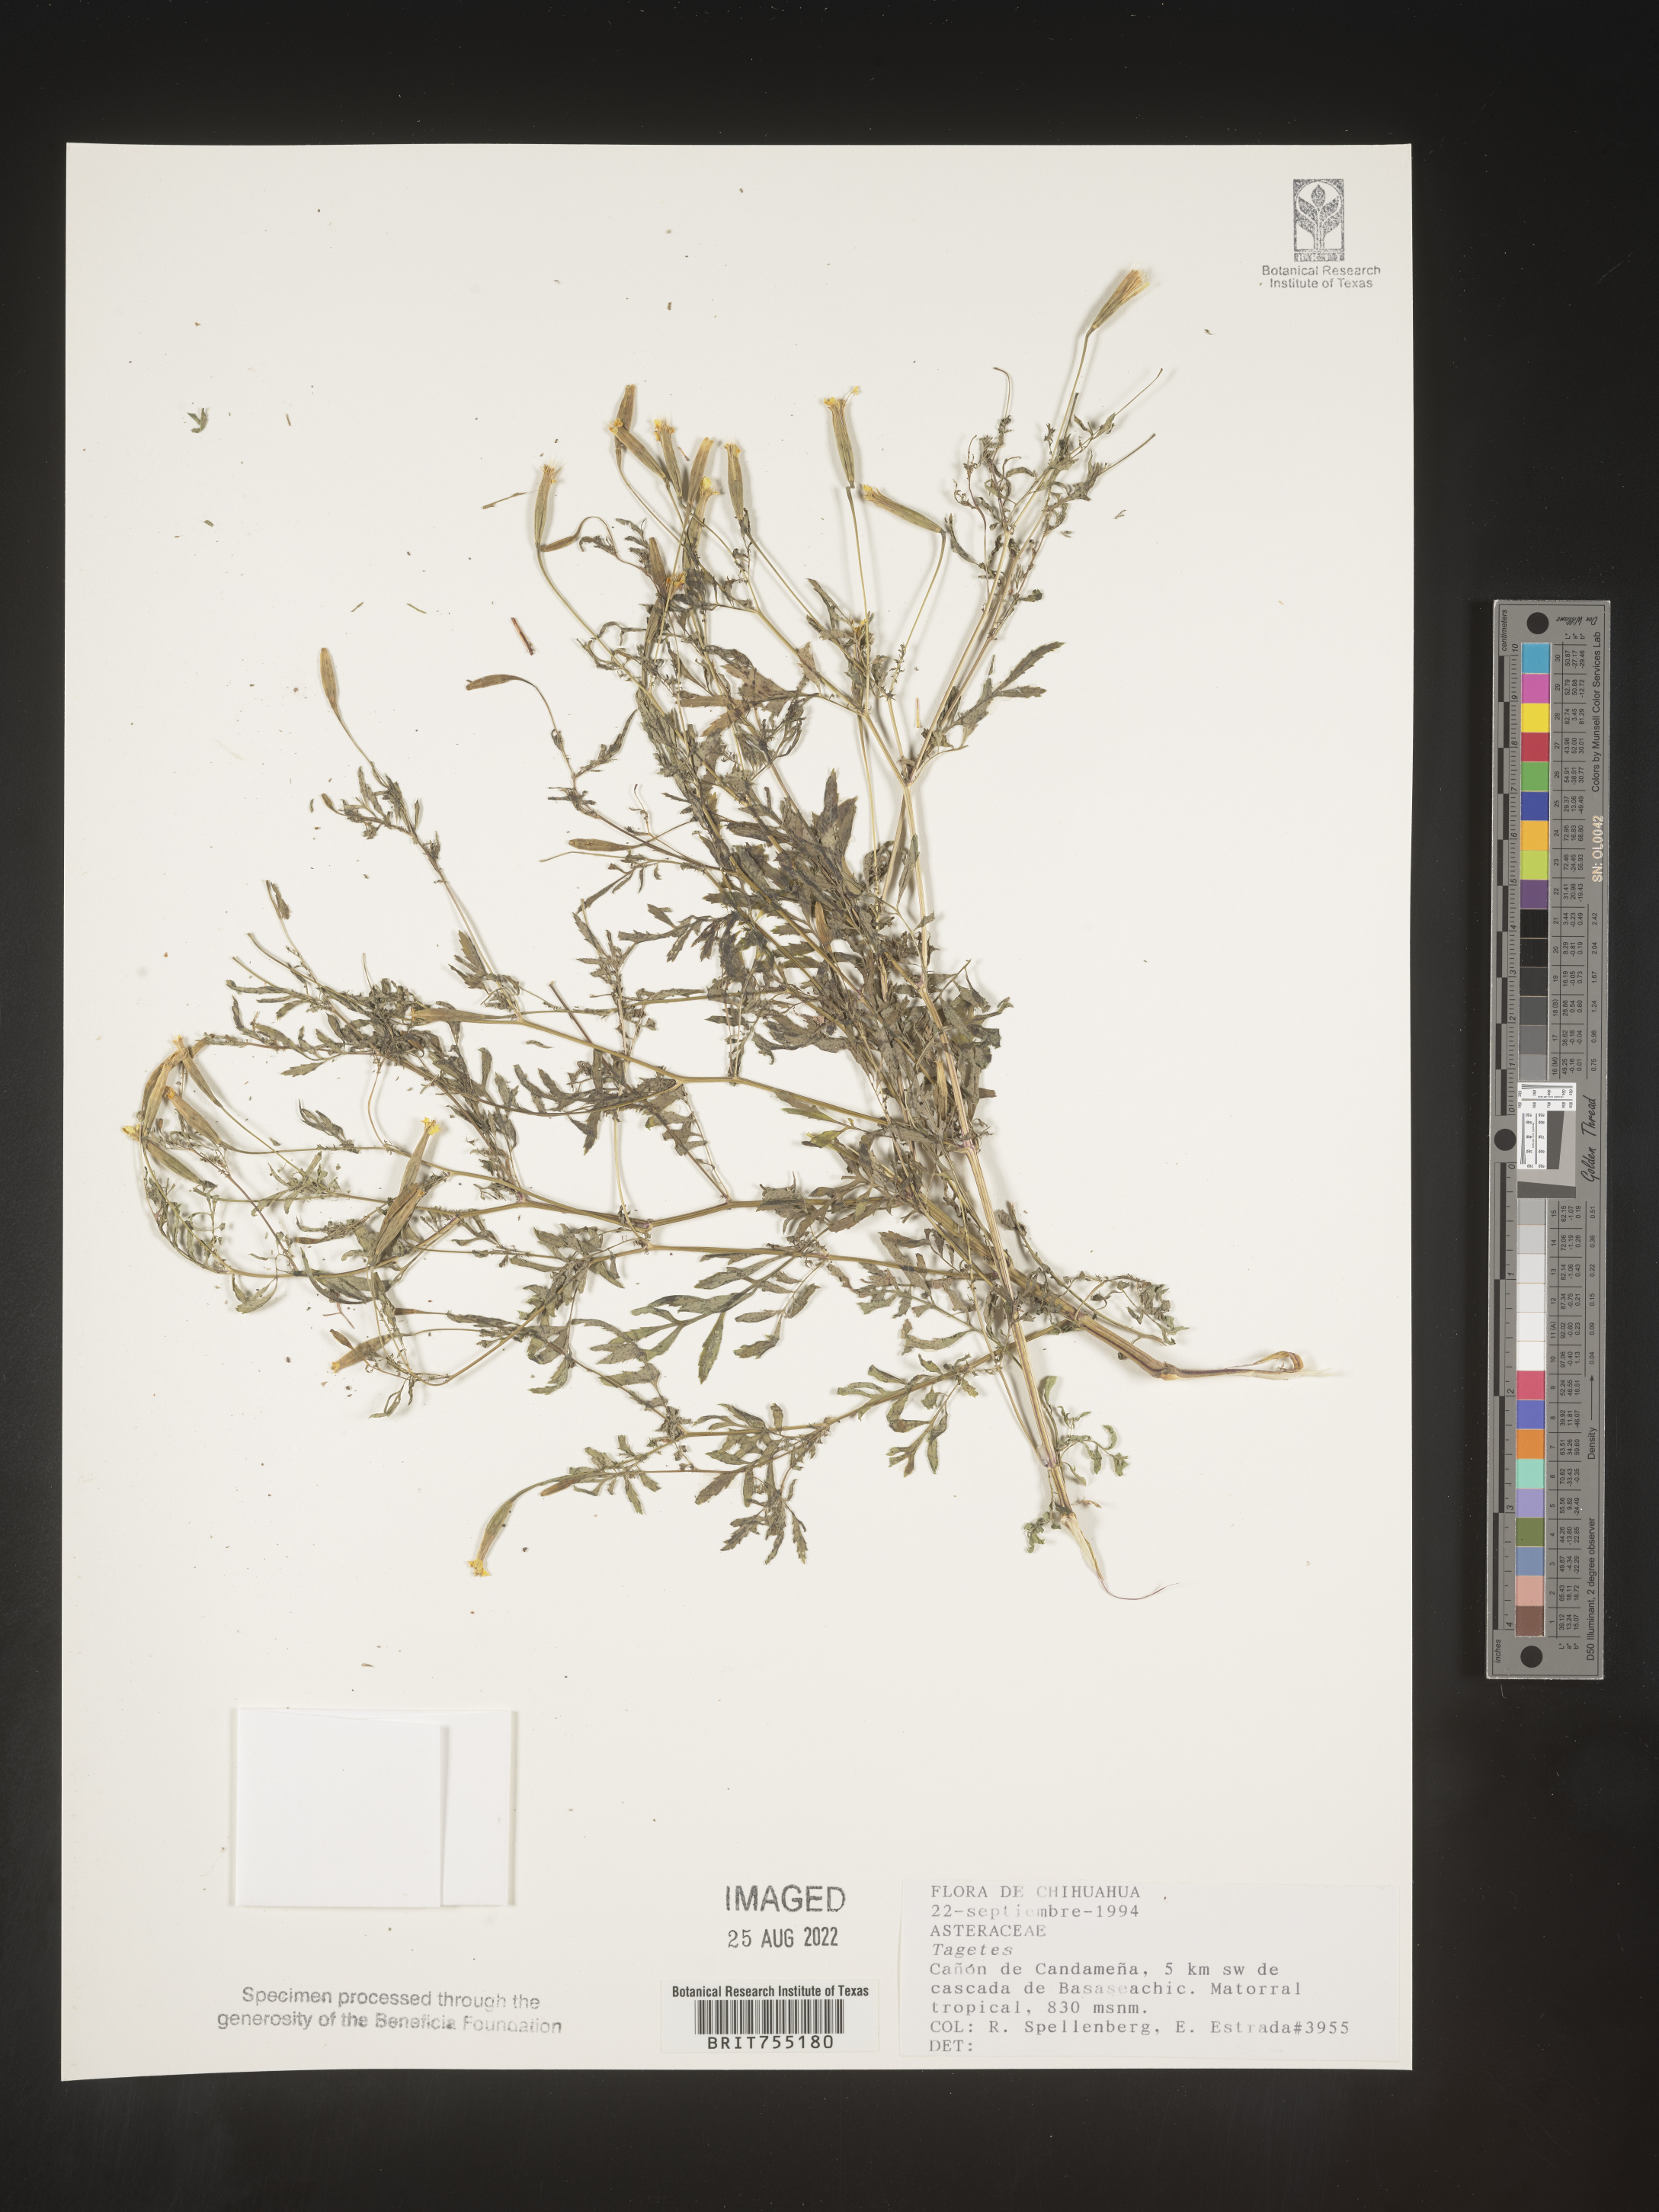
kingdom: Plantae
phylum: Tracheophyta
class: Magnoliopsida
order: Asterales
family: Asteraceae
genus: Tagetes
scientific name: Tagetes
